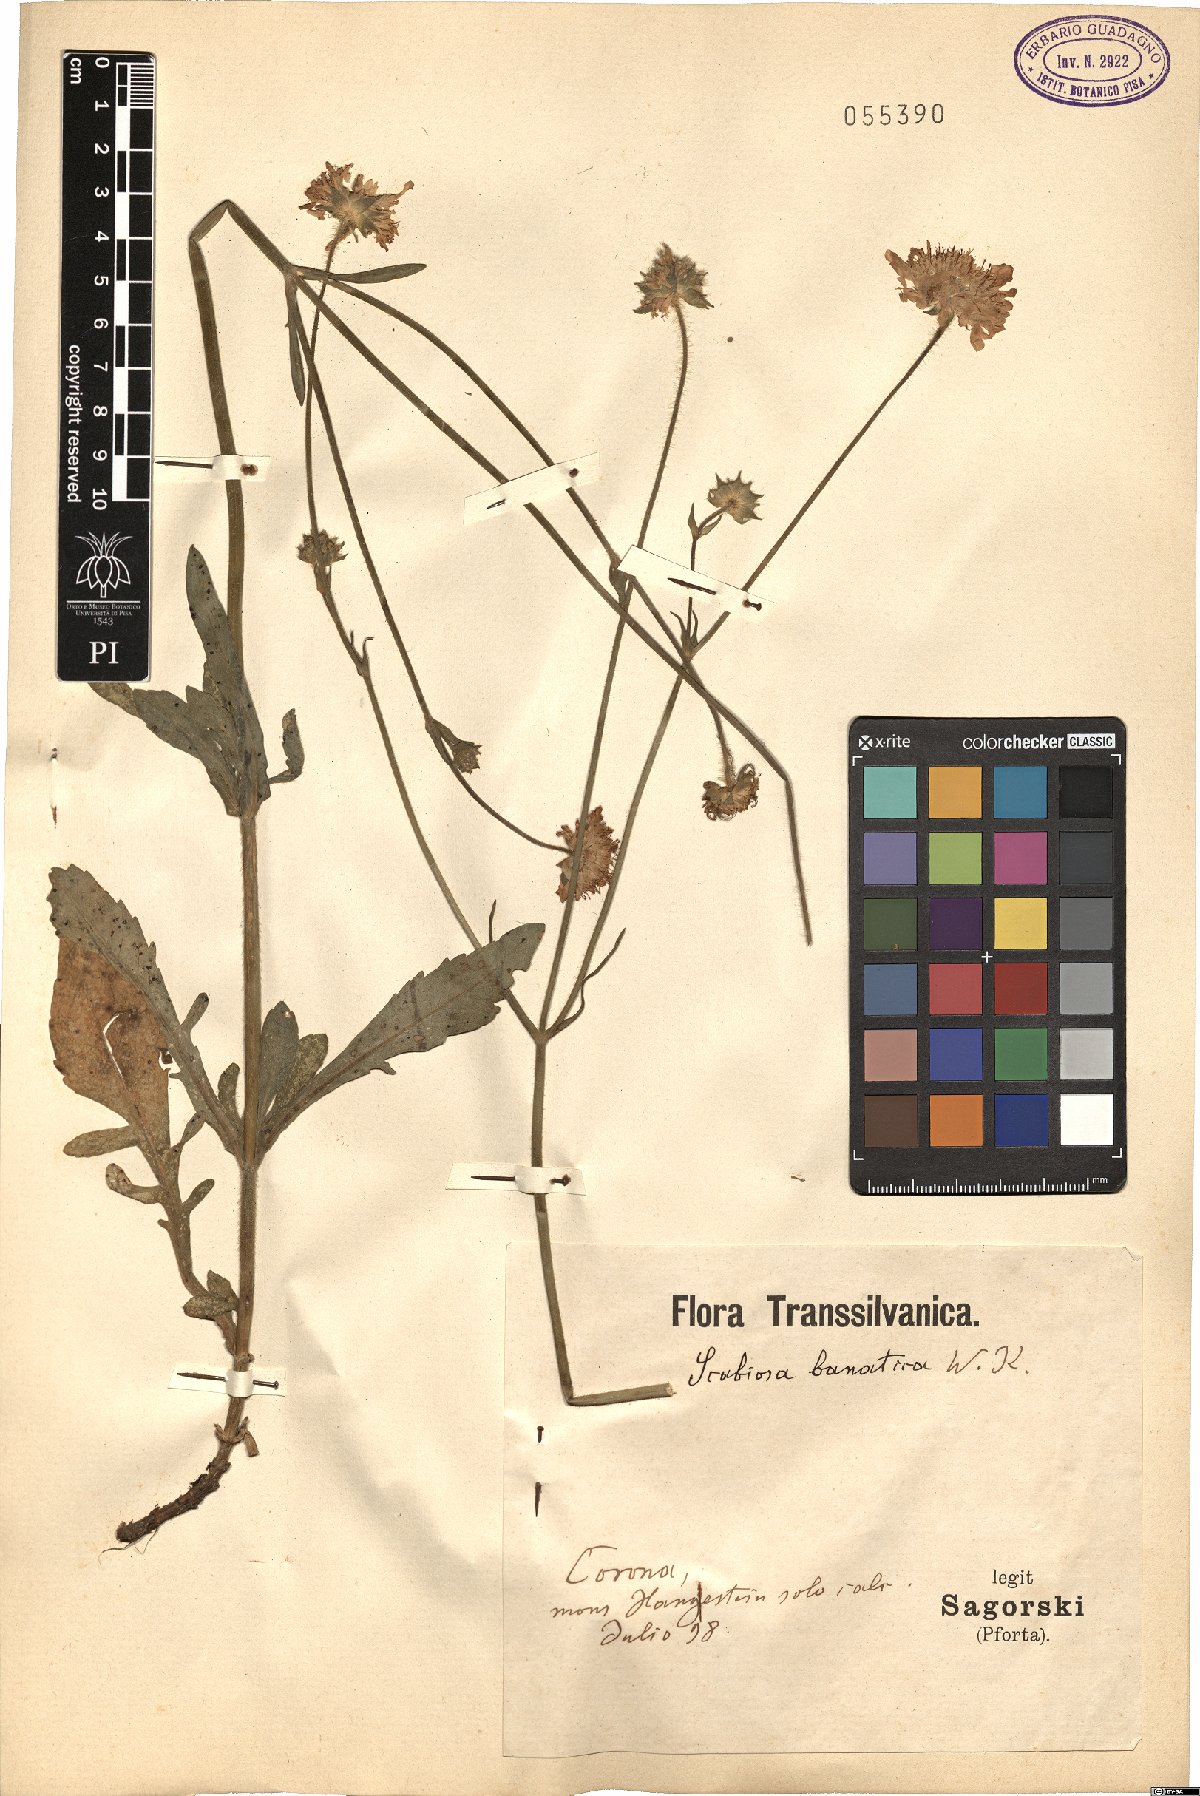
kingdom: Plantae
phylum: Tracheophyta
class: Magnoliopsida
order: Dipsacales
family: Caprifoliaceae
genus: Scabiosa
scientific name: Scabiosa columbaria
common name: Small scabious
